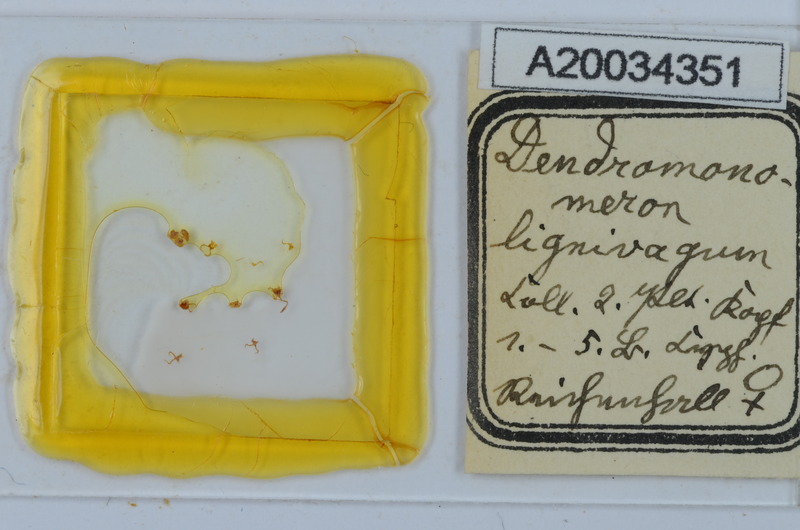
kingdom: Animalia
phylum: Arthropoda
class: Diplopoda
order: Chordeumatida
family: Attemsiidae
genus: Dendromonomeron
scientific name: Dendromonomeron lignivagum
